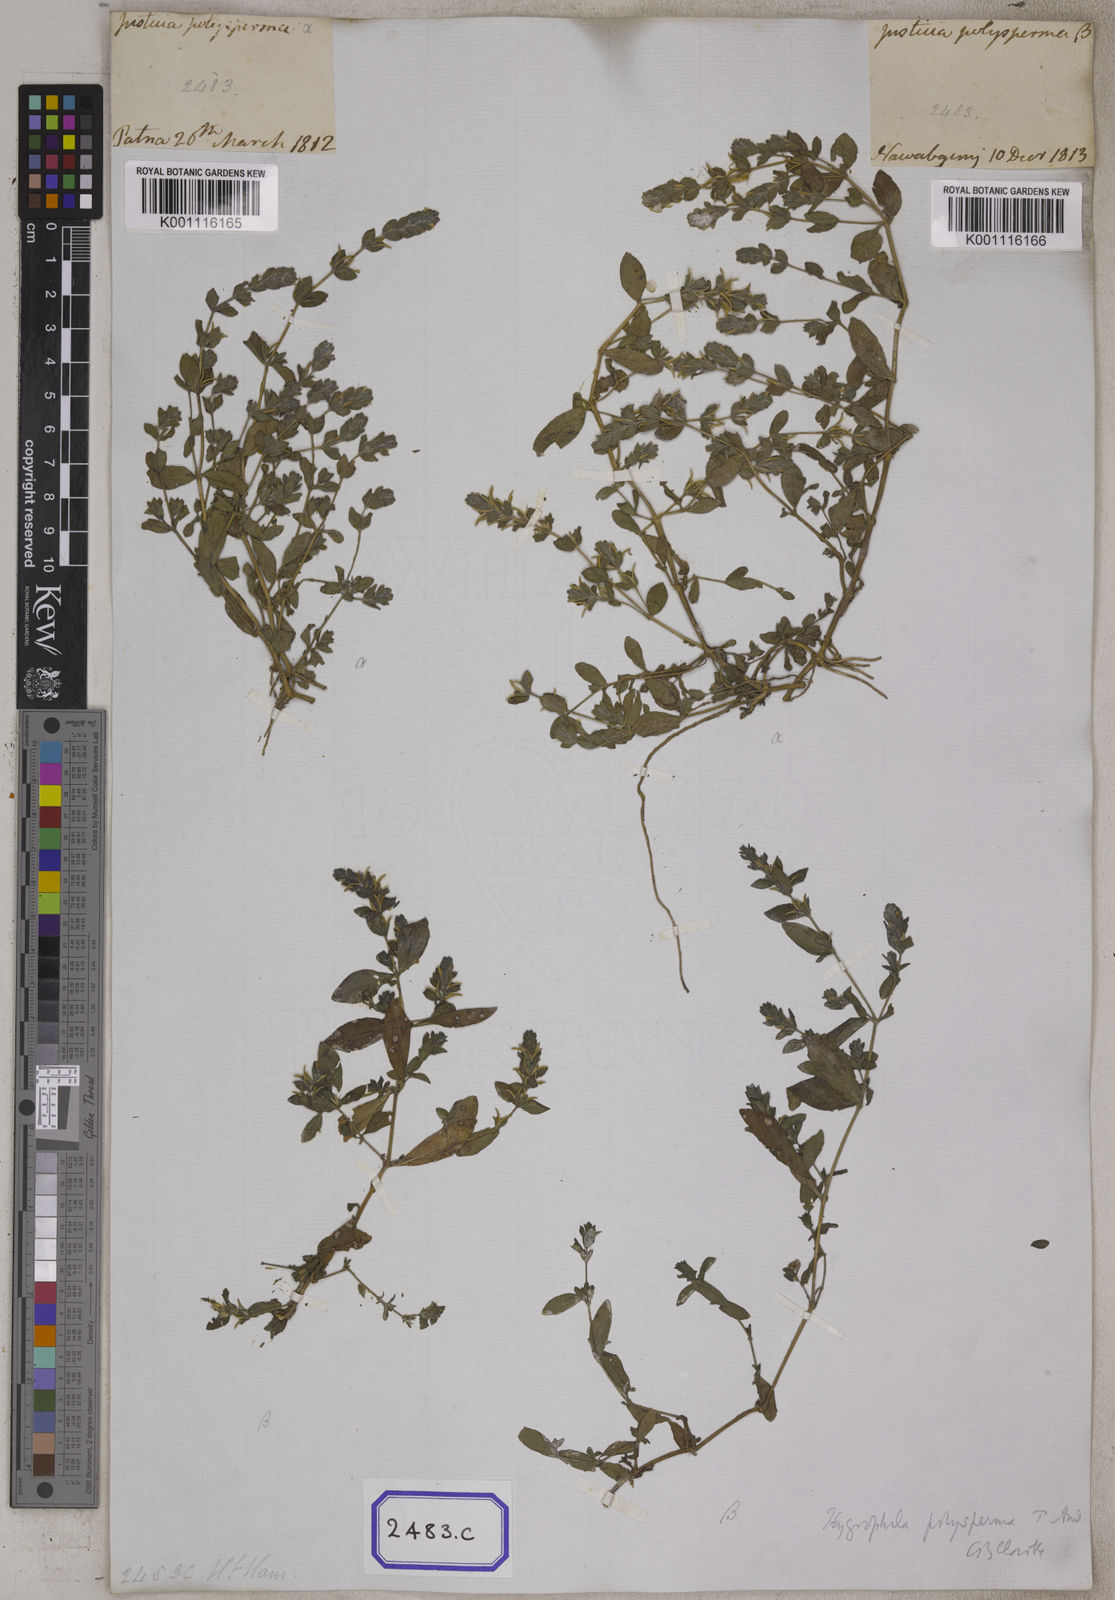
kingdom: Plantae
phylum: Tracheophyta
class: Magnoliopsida
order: Lamiales
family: Acanthaceae
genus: Hygrophila
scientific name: Hygrophila polysperma
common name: Indian swampweed
